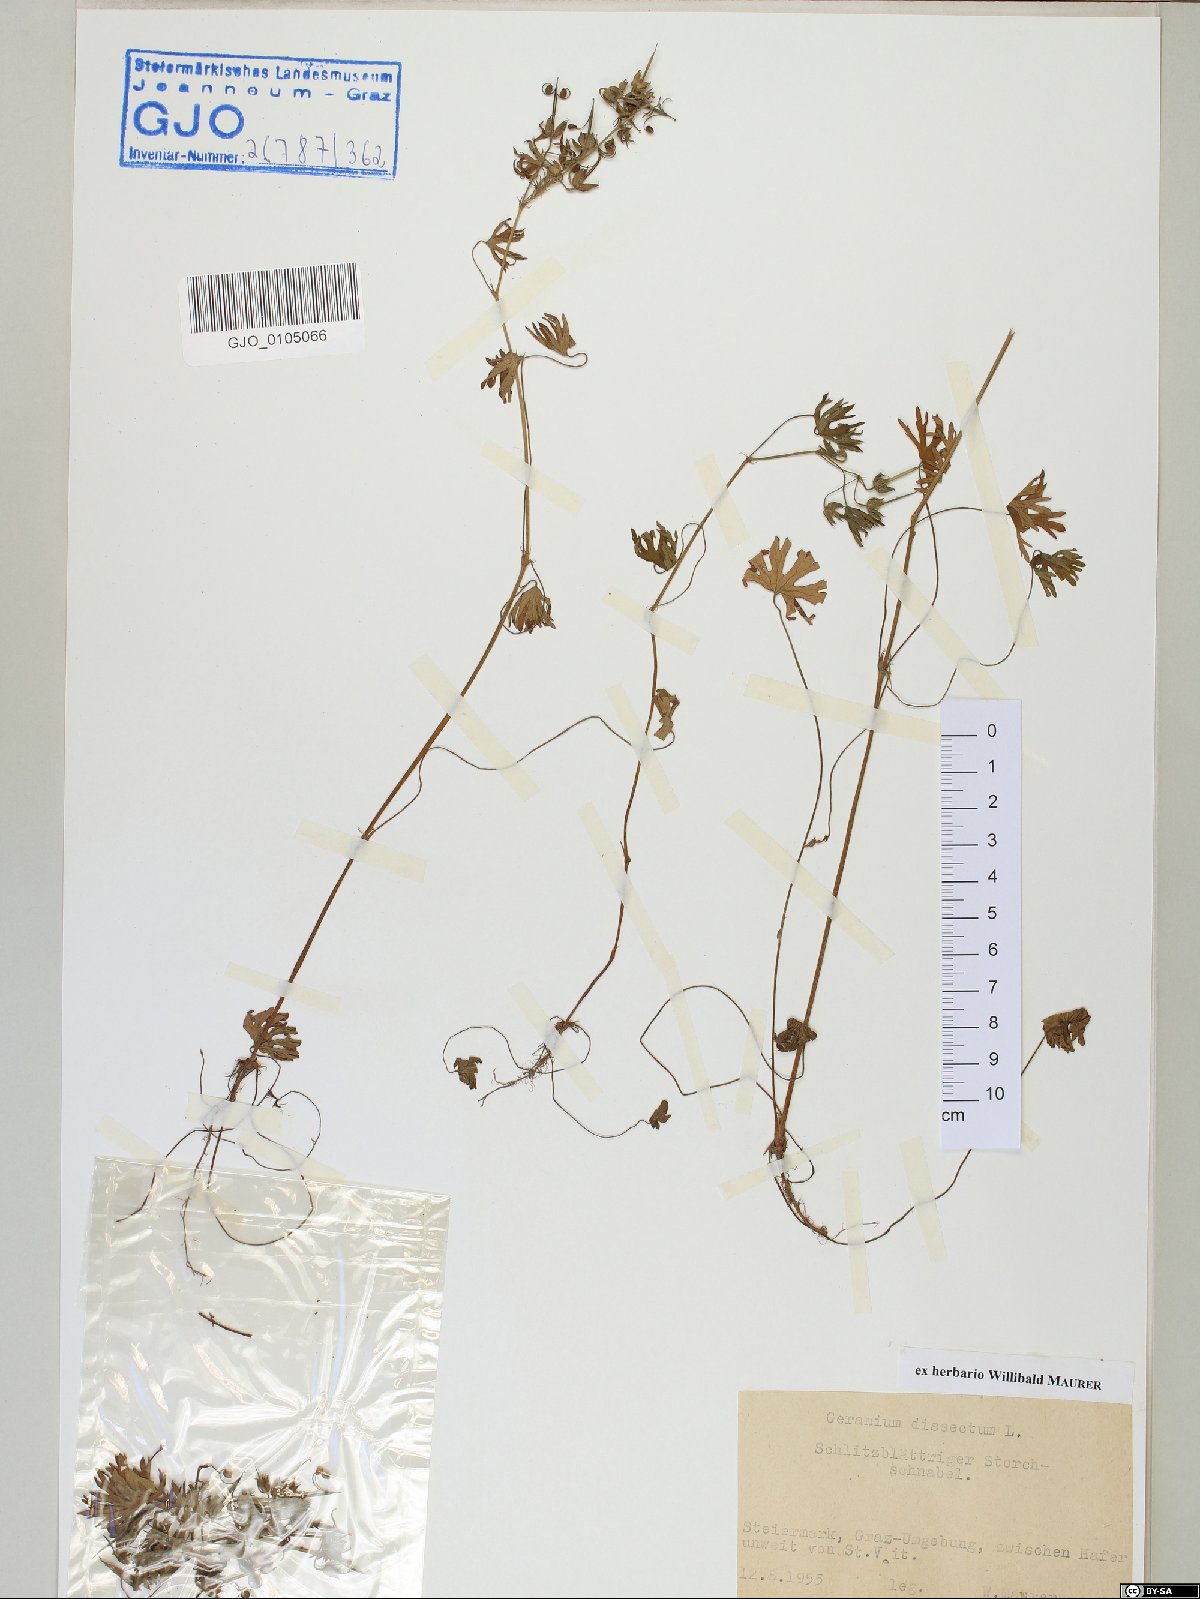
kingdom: Plantae
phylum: Tracheophyta
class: Magnoliopsida
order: Geraniales
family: Geraniaceae
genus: Geranium
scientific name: Geranium dissectum
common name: Cut-leaved crane's-bill
